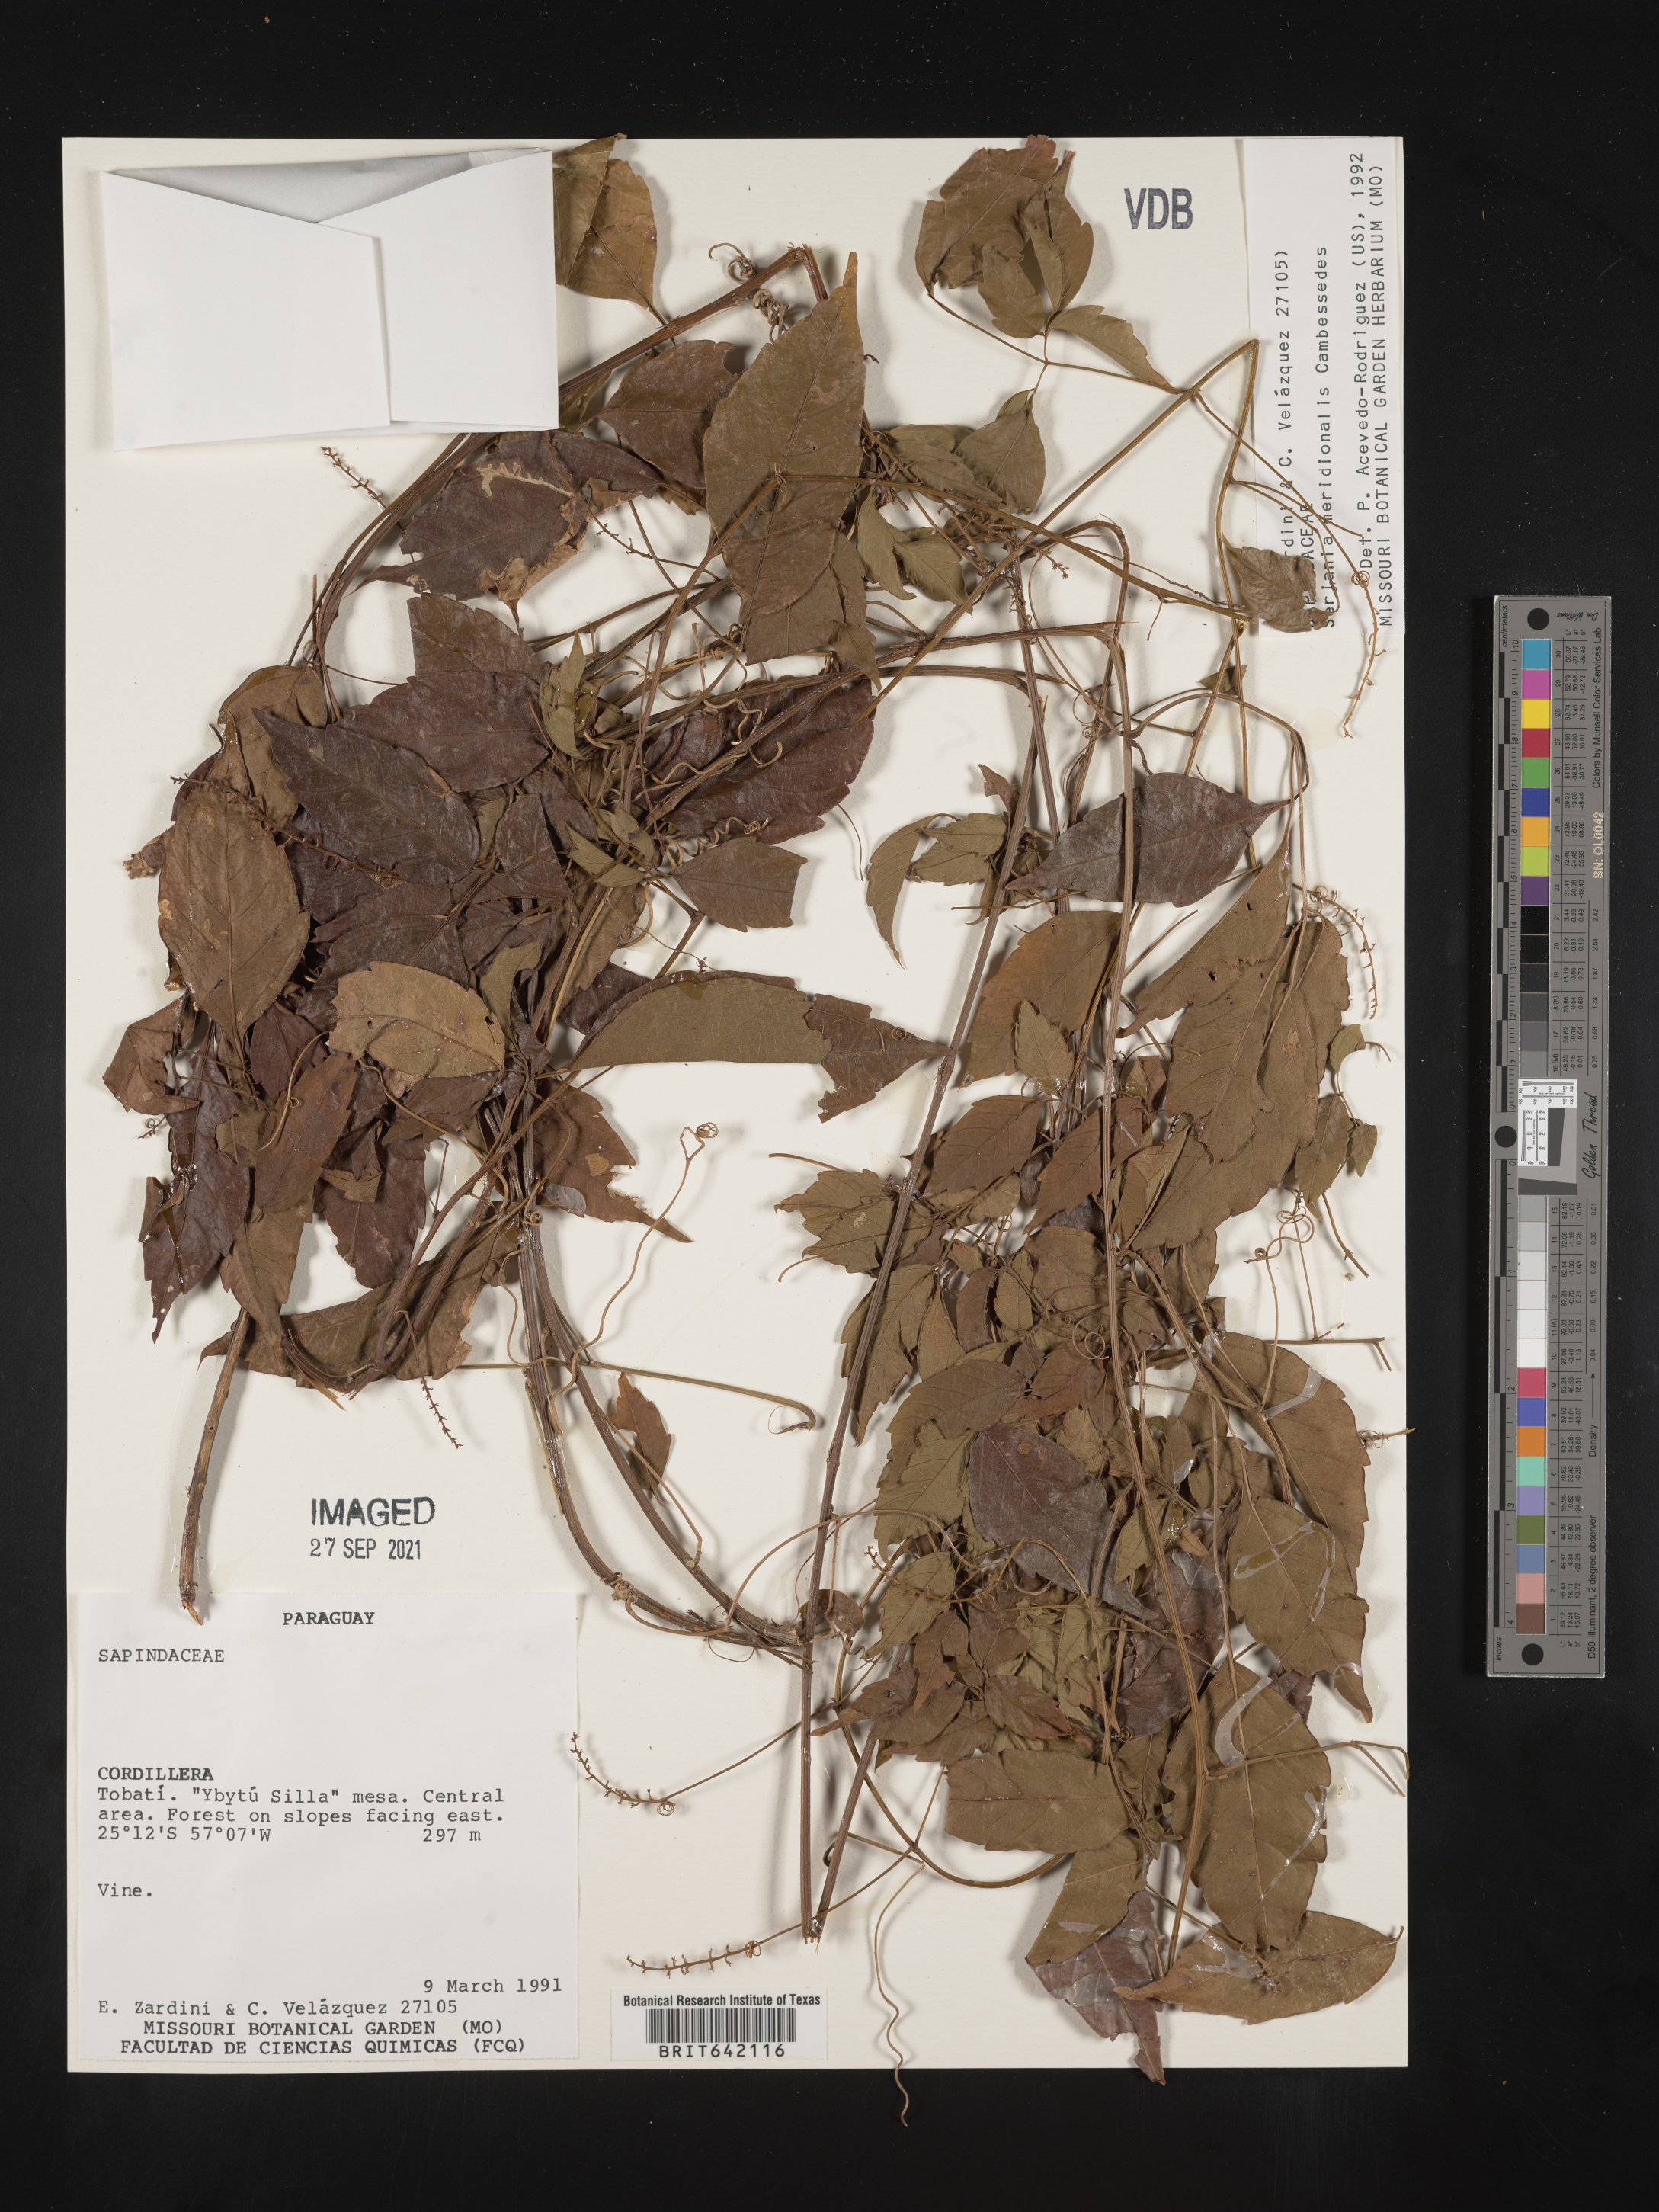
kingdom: Plantae
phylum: Tracheophyta
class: Magnoliopsida
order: Sapindales
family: Sapindaceae
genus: Serjania
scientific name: Serjania
